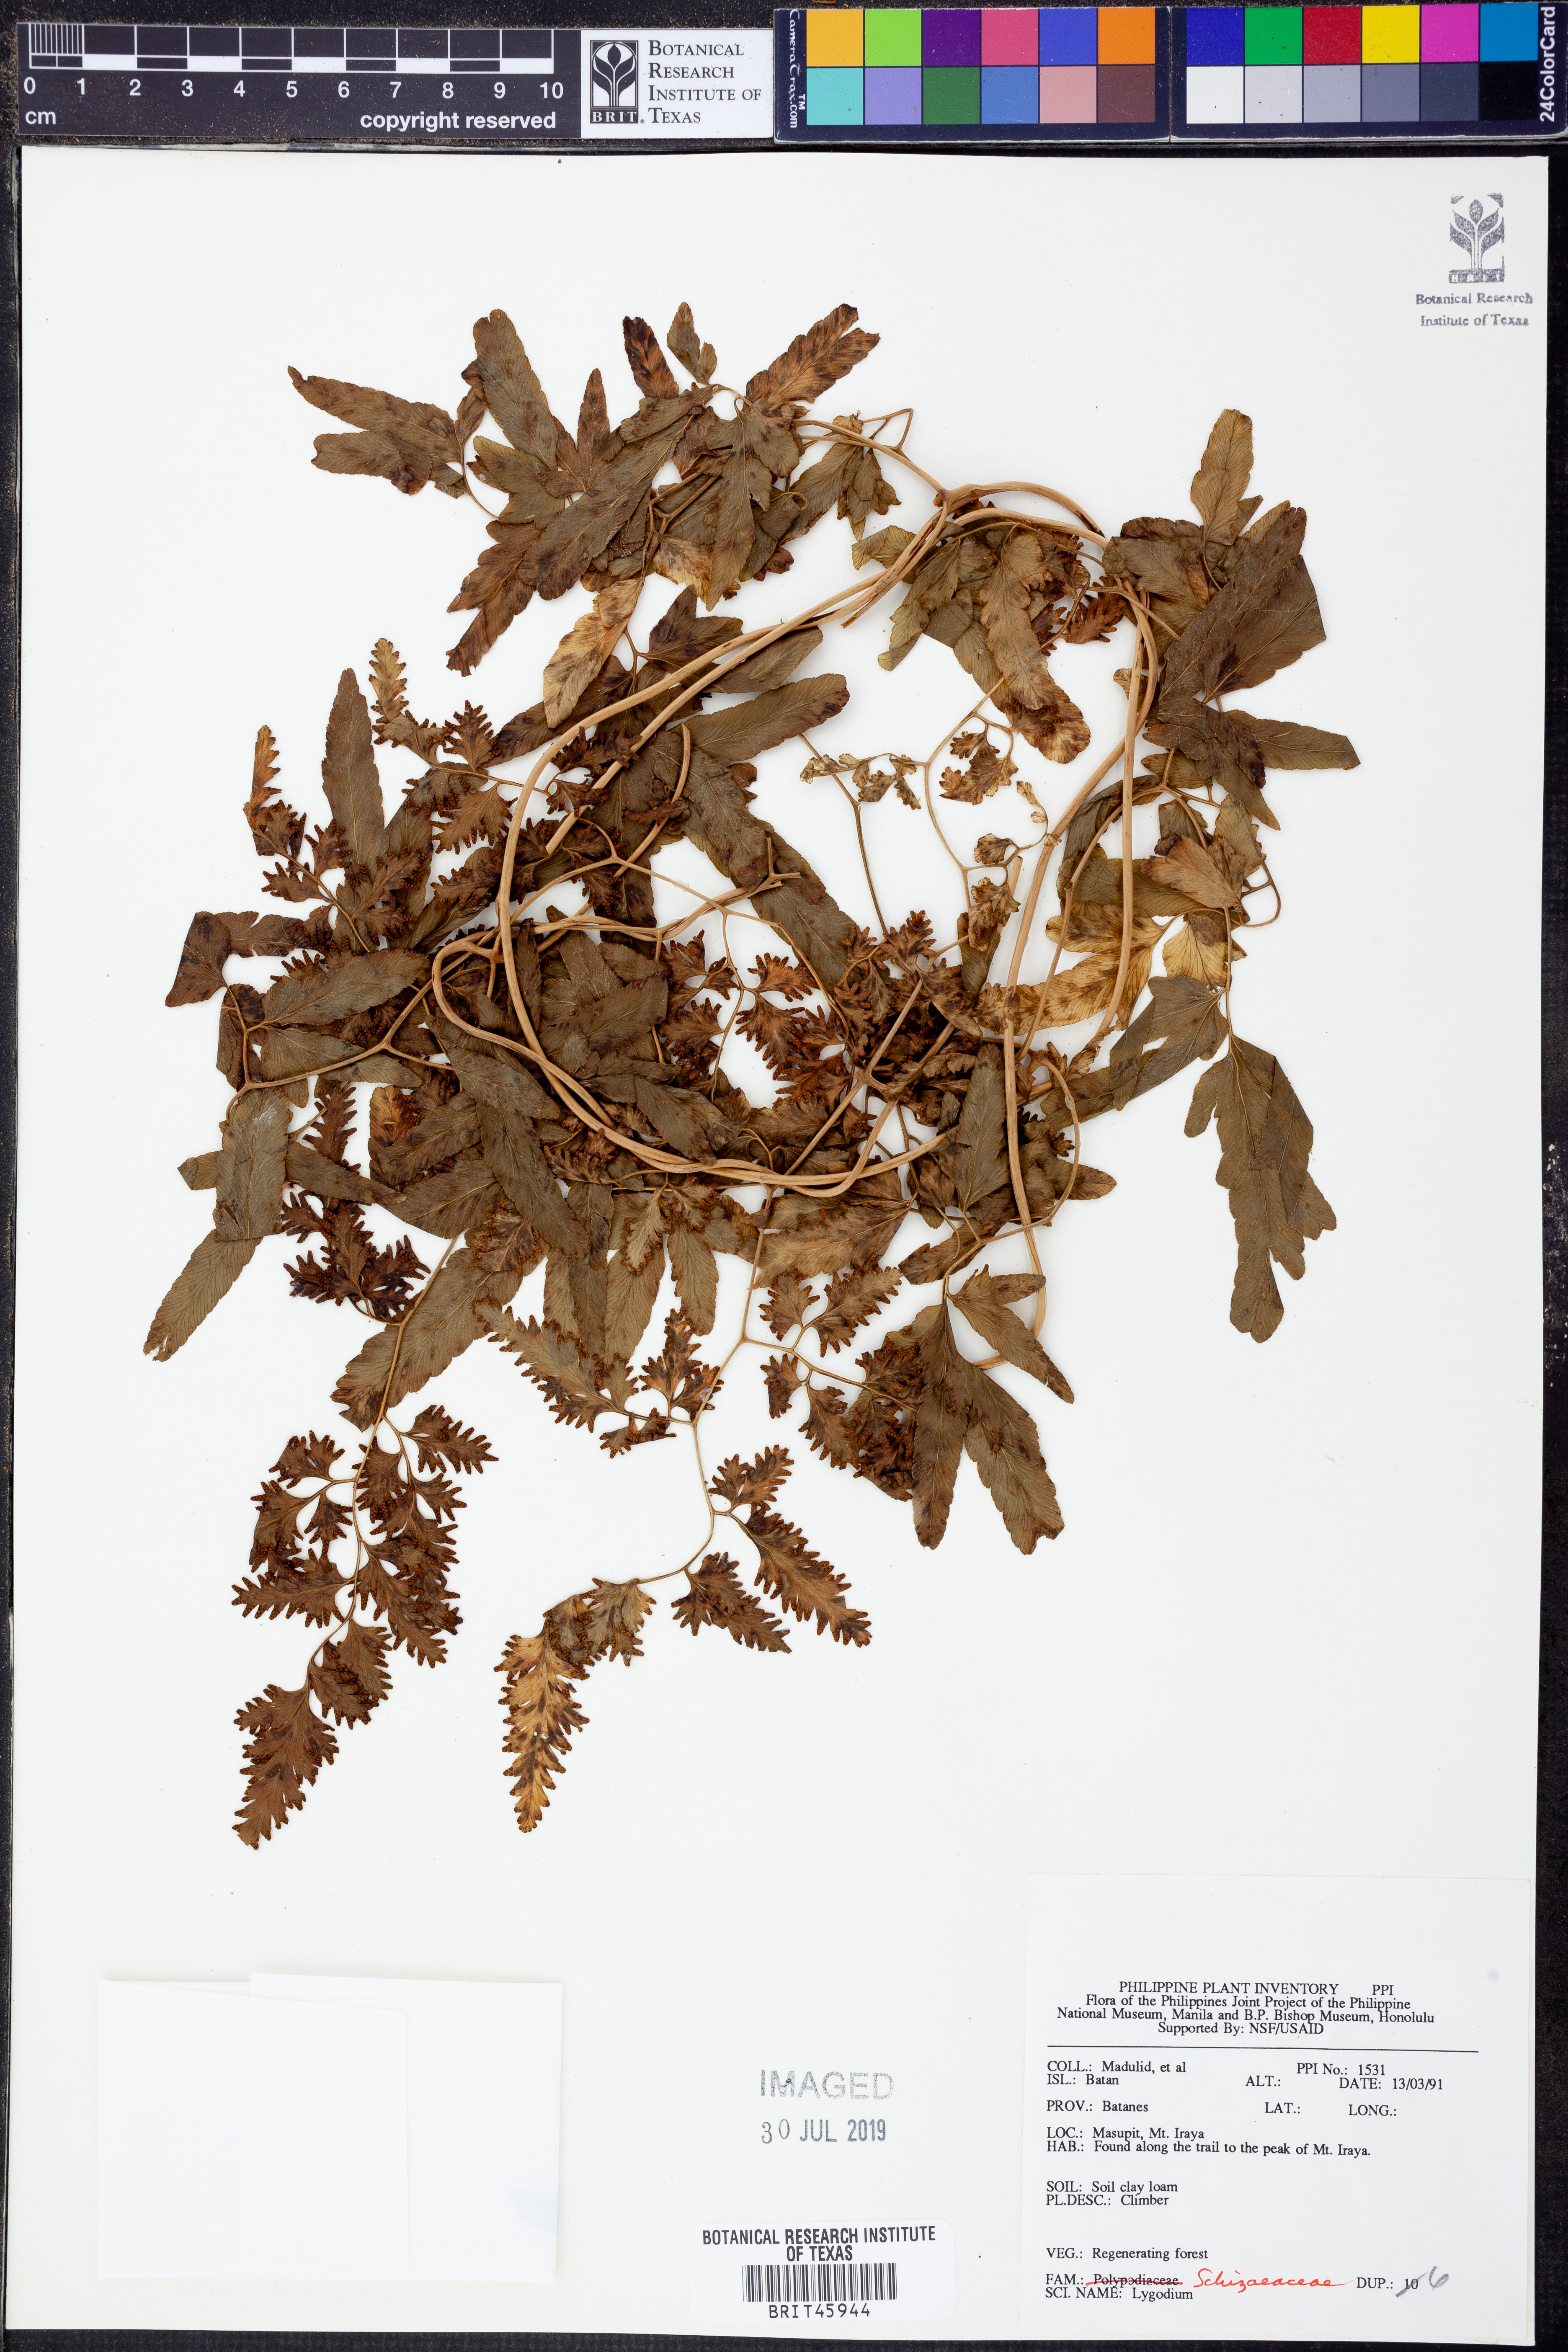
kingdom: Plantae
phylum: Tracheophyta
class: Polypodiopsida
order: Schizaeales
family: Lygodiaceae
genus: Lygodium
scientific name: Lygodium
